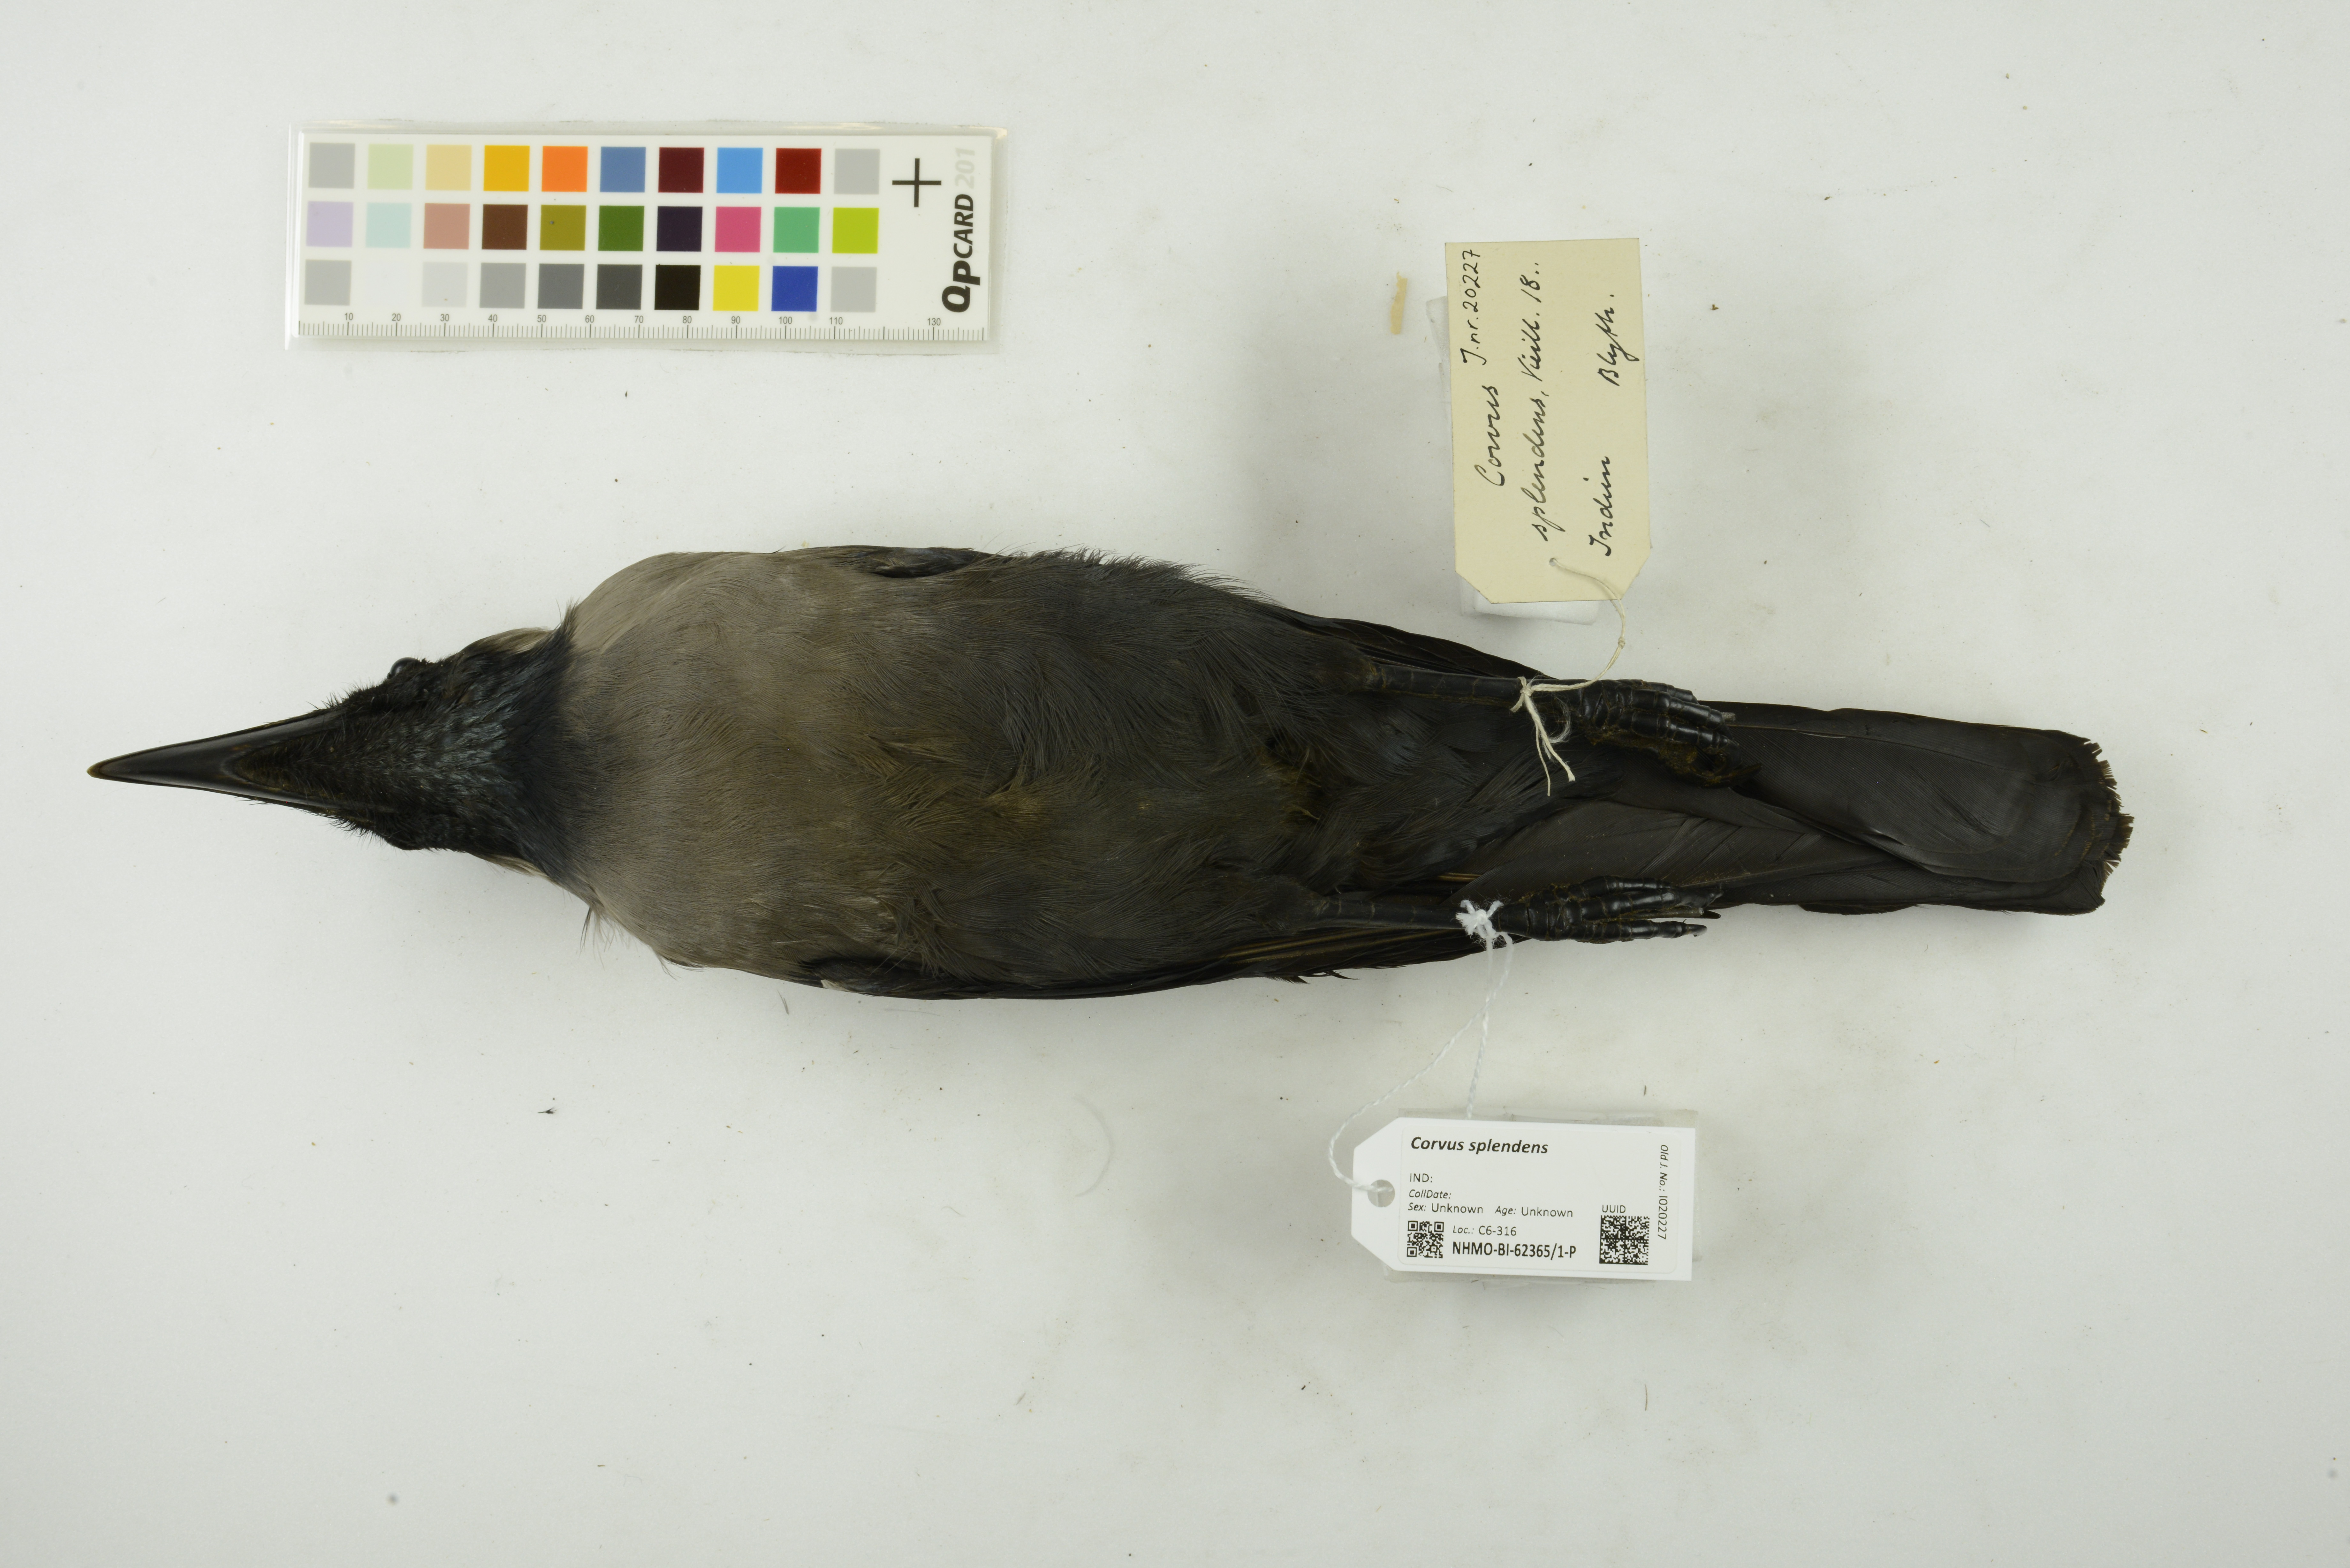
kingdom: Animalia
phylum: Chordata
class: Aves
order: Passeriformes
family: Corvidae
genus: Corvus
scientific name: Corvus splendens
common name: House crow
